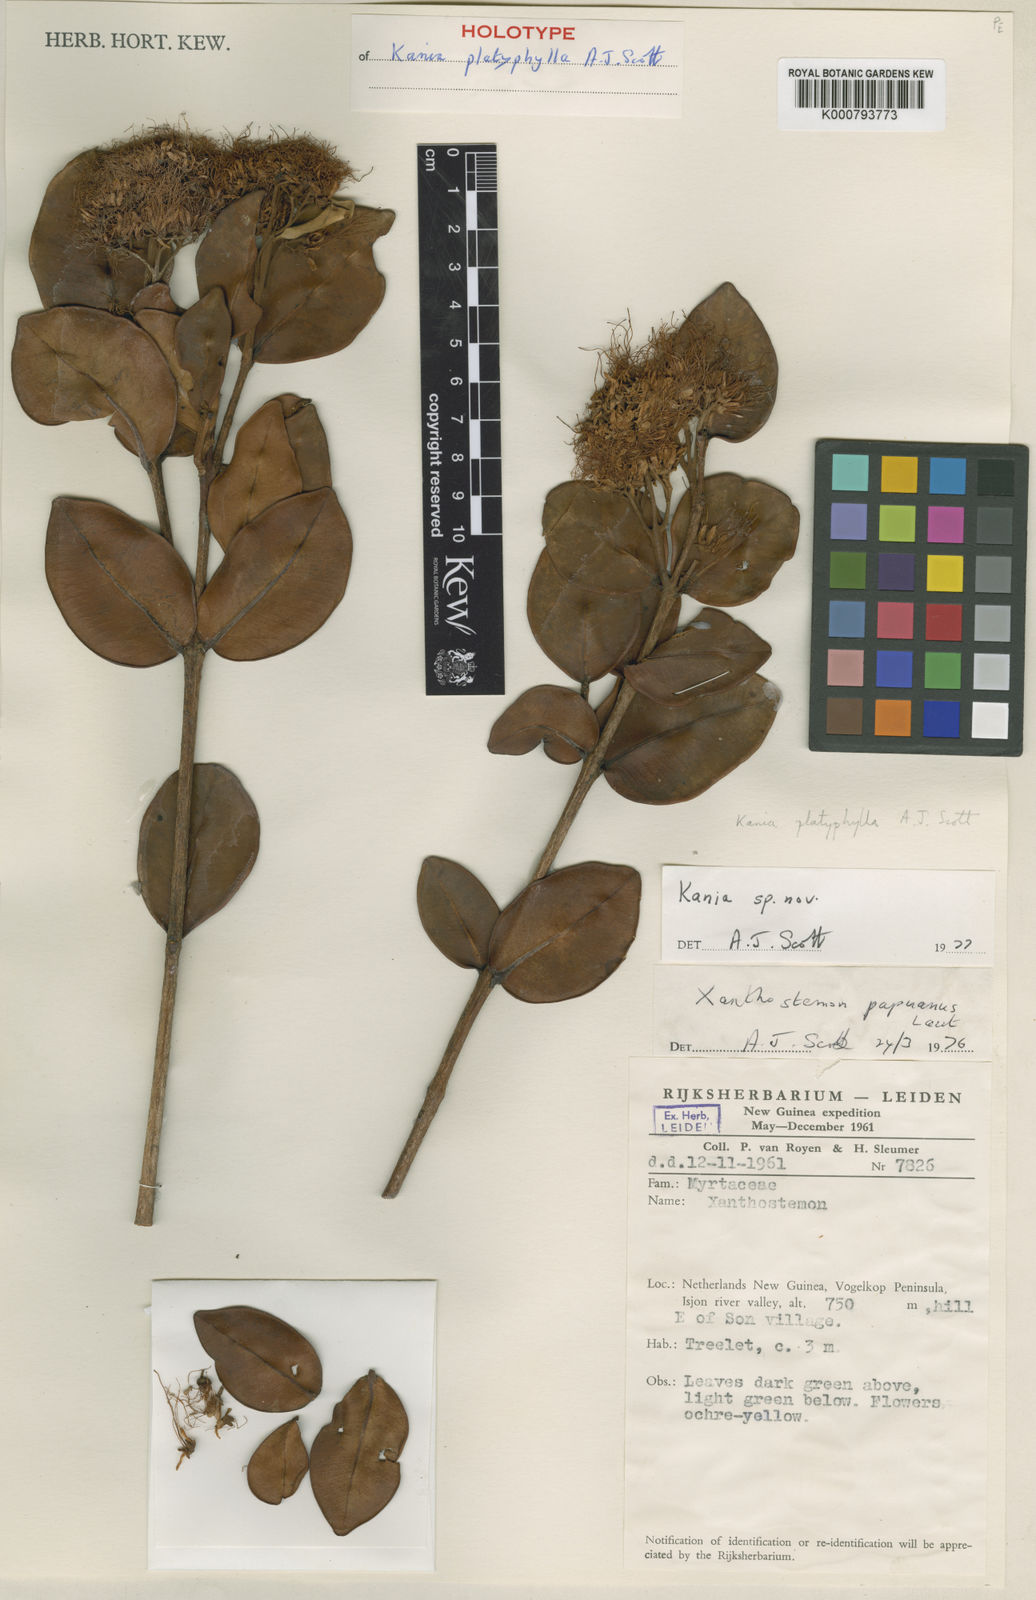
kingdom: Plantae
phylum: Tracheophyta
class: Magnoliopsida
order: Myrtales
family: Myrtaceae
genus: Kania
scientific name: Kania platyphylla
